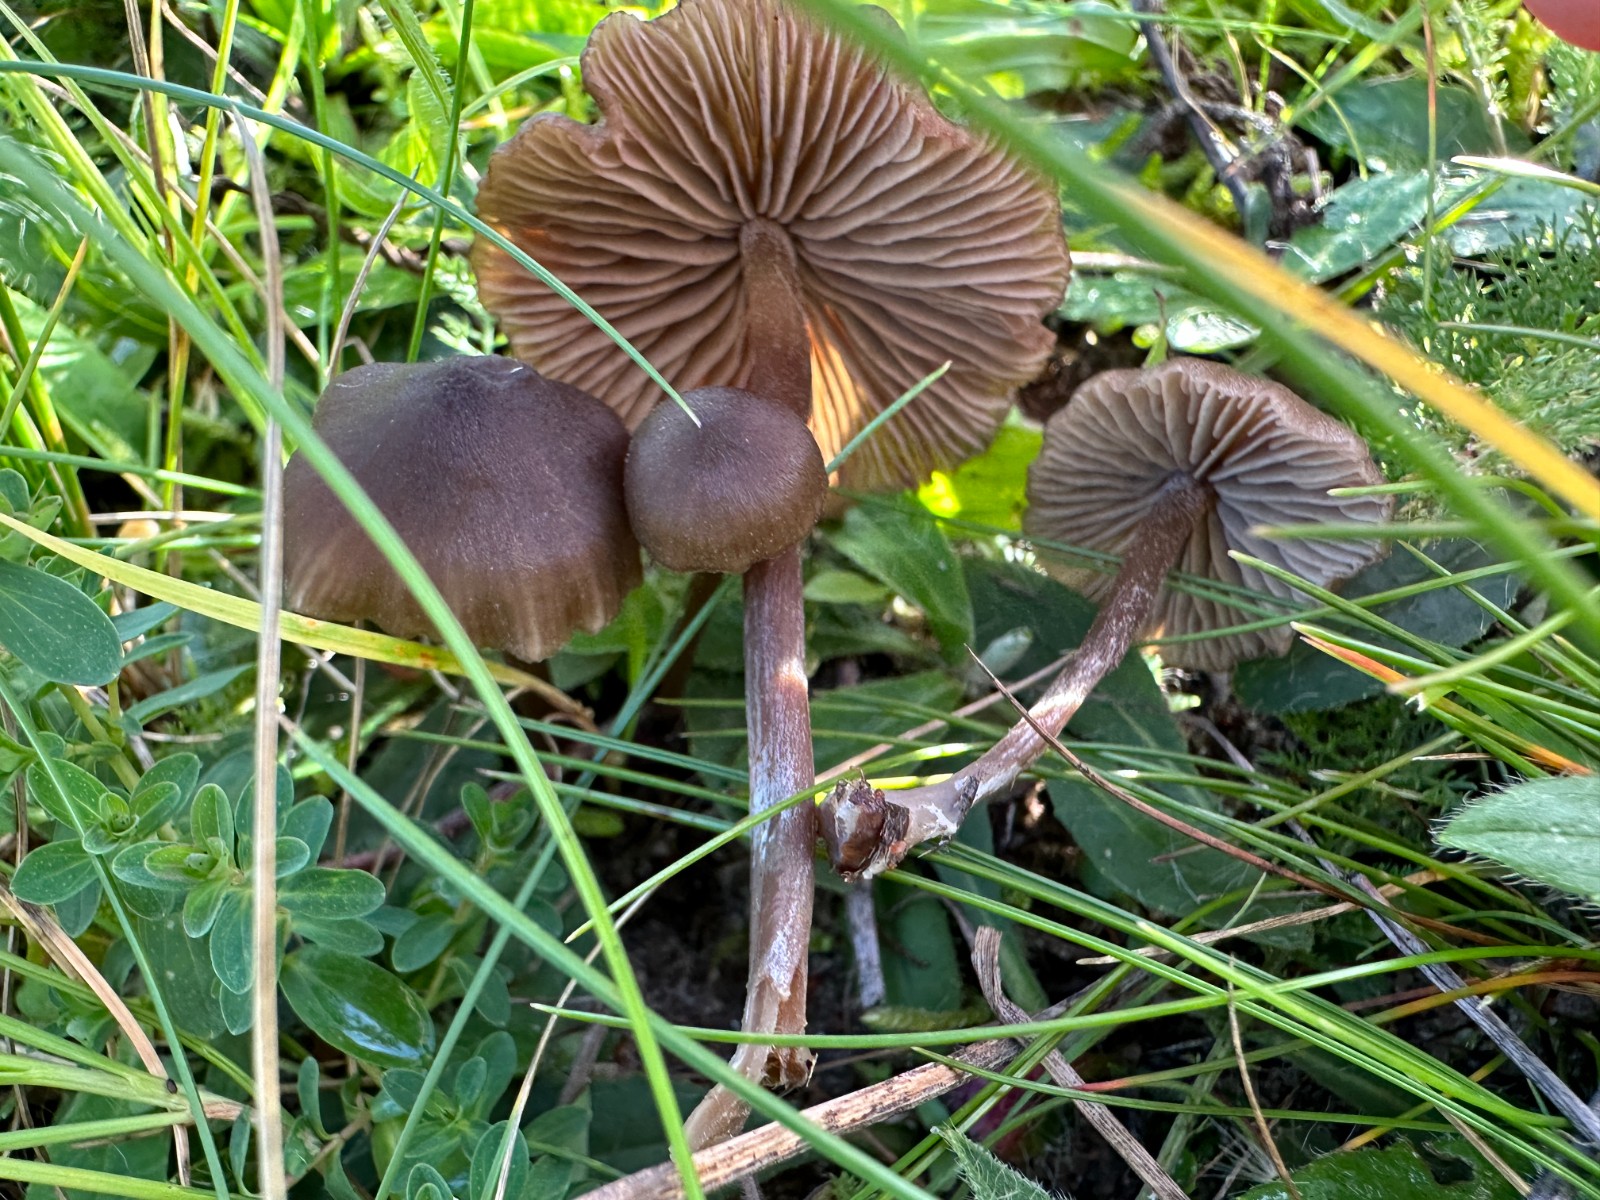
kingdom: Fungi
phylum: Basidiomycota
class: Agaricomycetes
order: Agaricales
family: Entolomataceae
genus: Entoloma
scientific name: Entoloma clandestinum
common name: tykbladet rødblad
